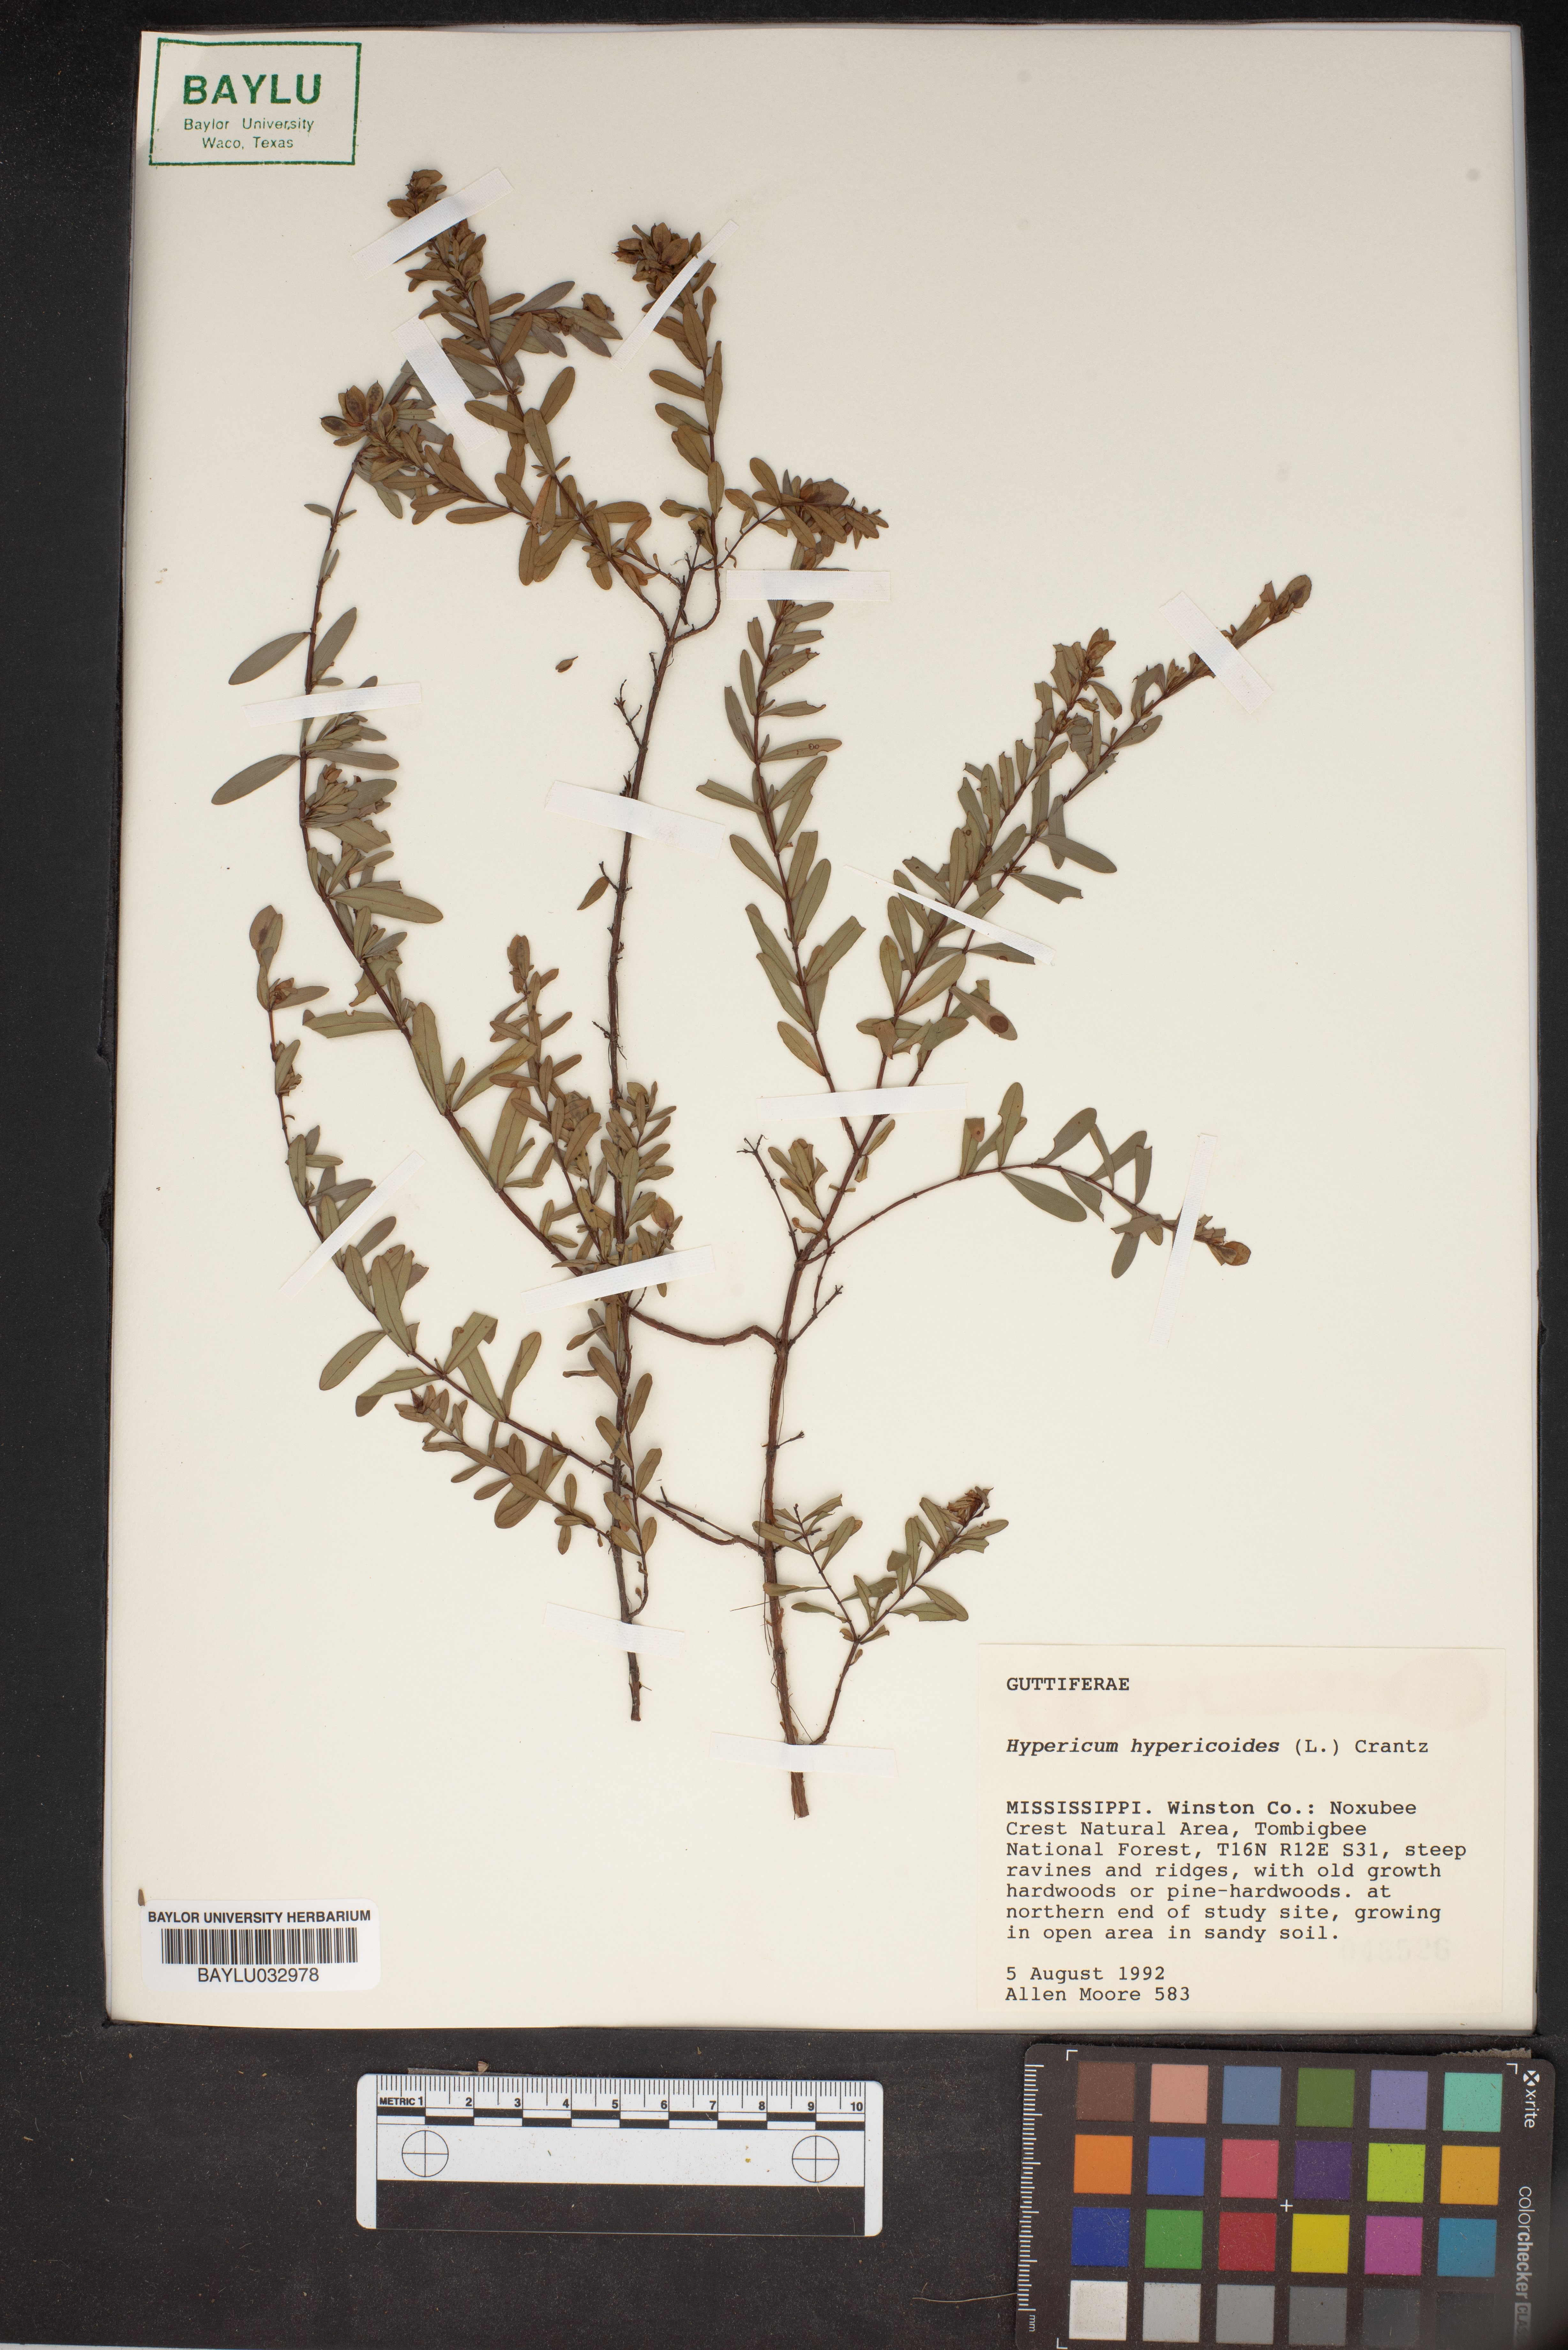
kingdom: Plantae
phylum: Tracheophyta
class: Magnoliopsida
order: Malpighiales
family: Hypericaceae
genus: Hypericum
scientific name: Hypericum hypericoides
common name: St. andrew's cross
